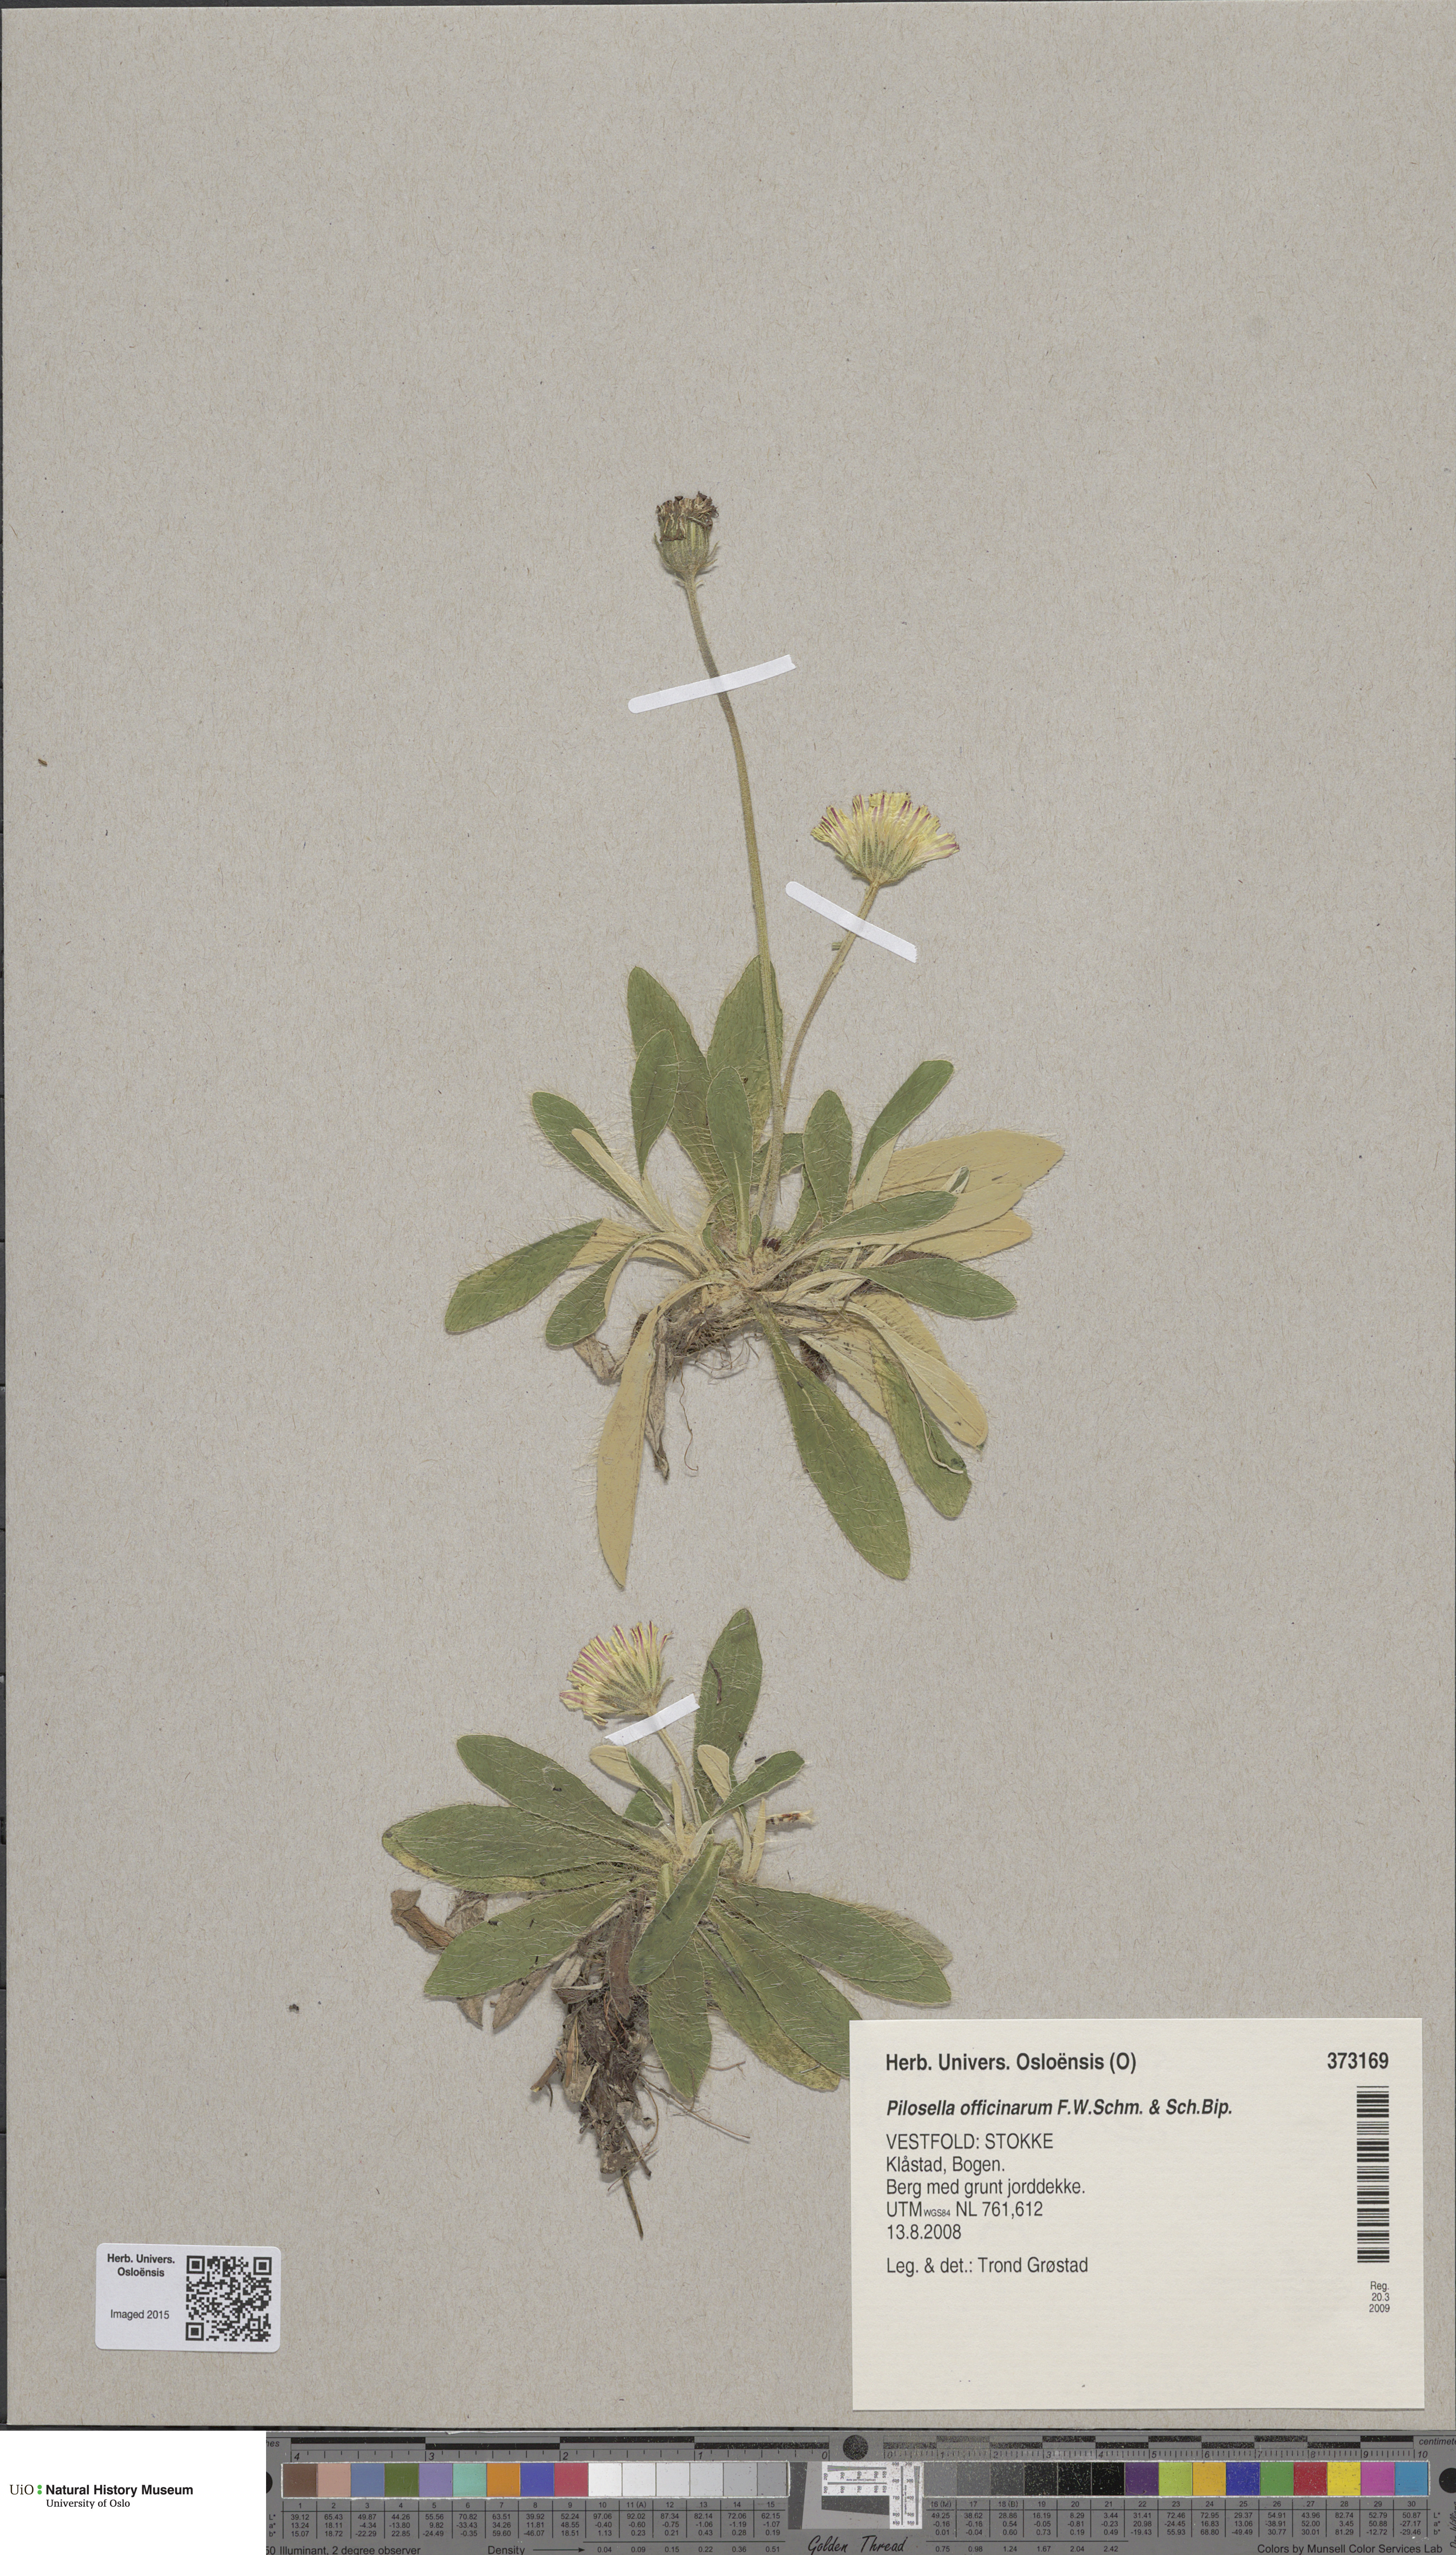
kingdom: Plantae
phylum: Tracheophyta
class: Magnoliopsida
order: Asterales
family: Asteraceae
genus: Pilosella
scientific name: Pilosella officinarum
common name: Mouse-ear hawkweed
